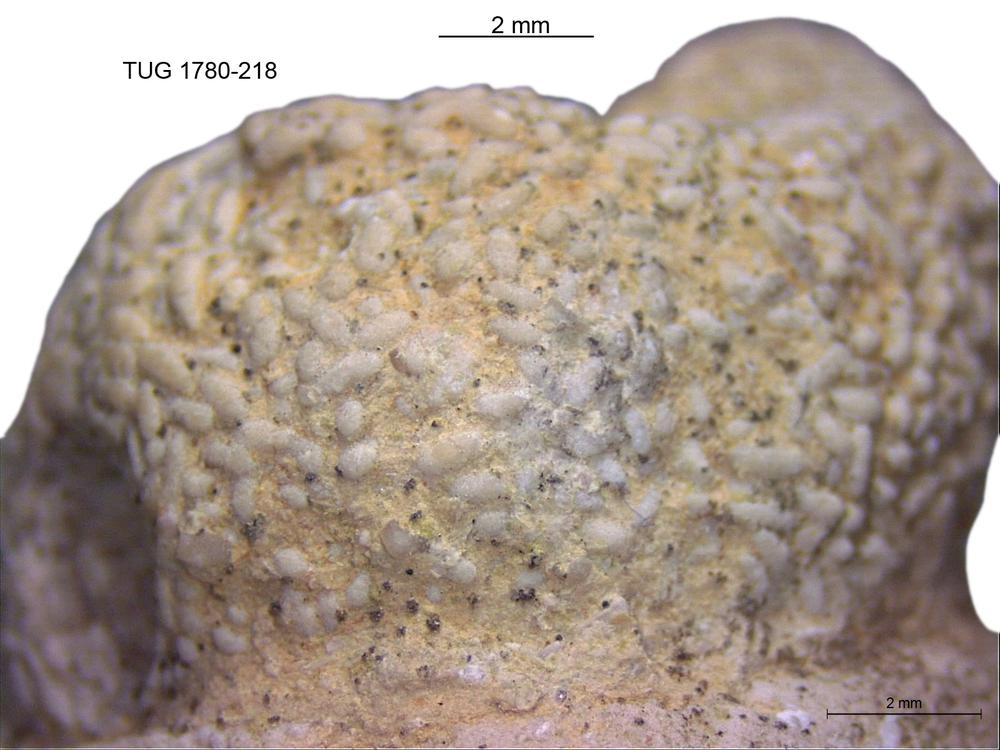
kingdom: Animalia
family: Coprulidae
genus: Coprulus
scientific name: Coprulus
